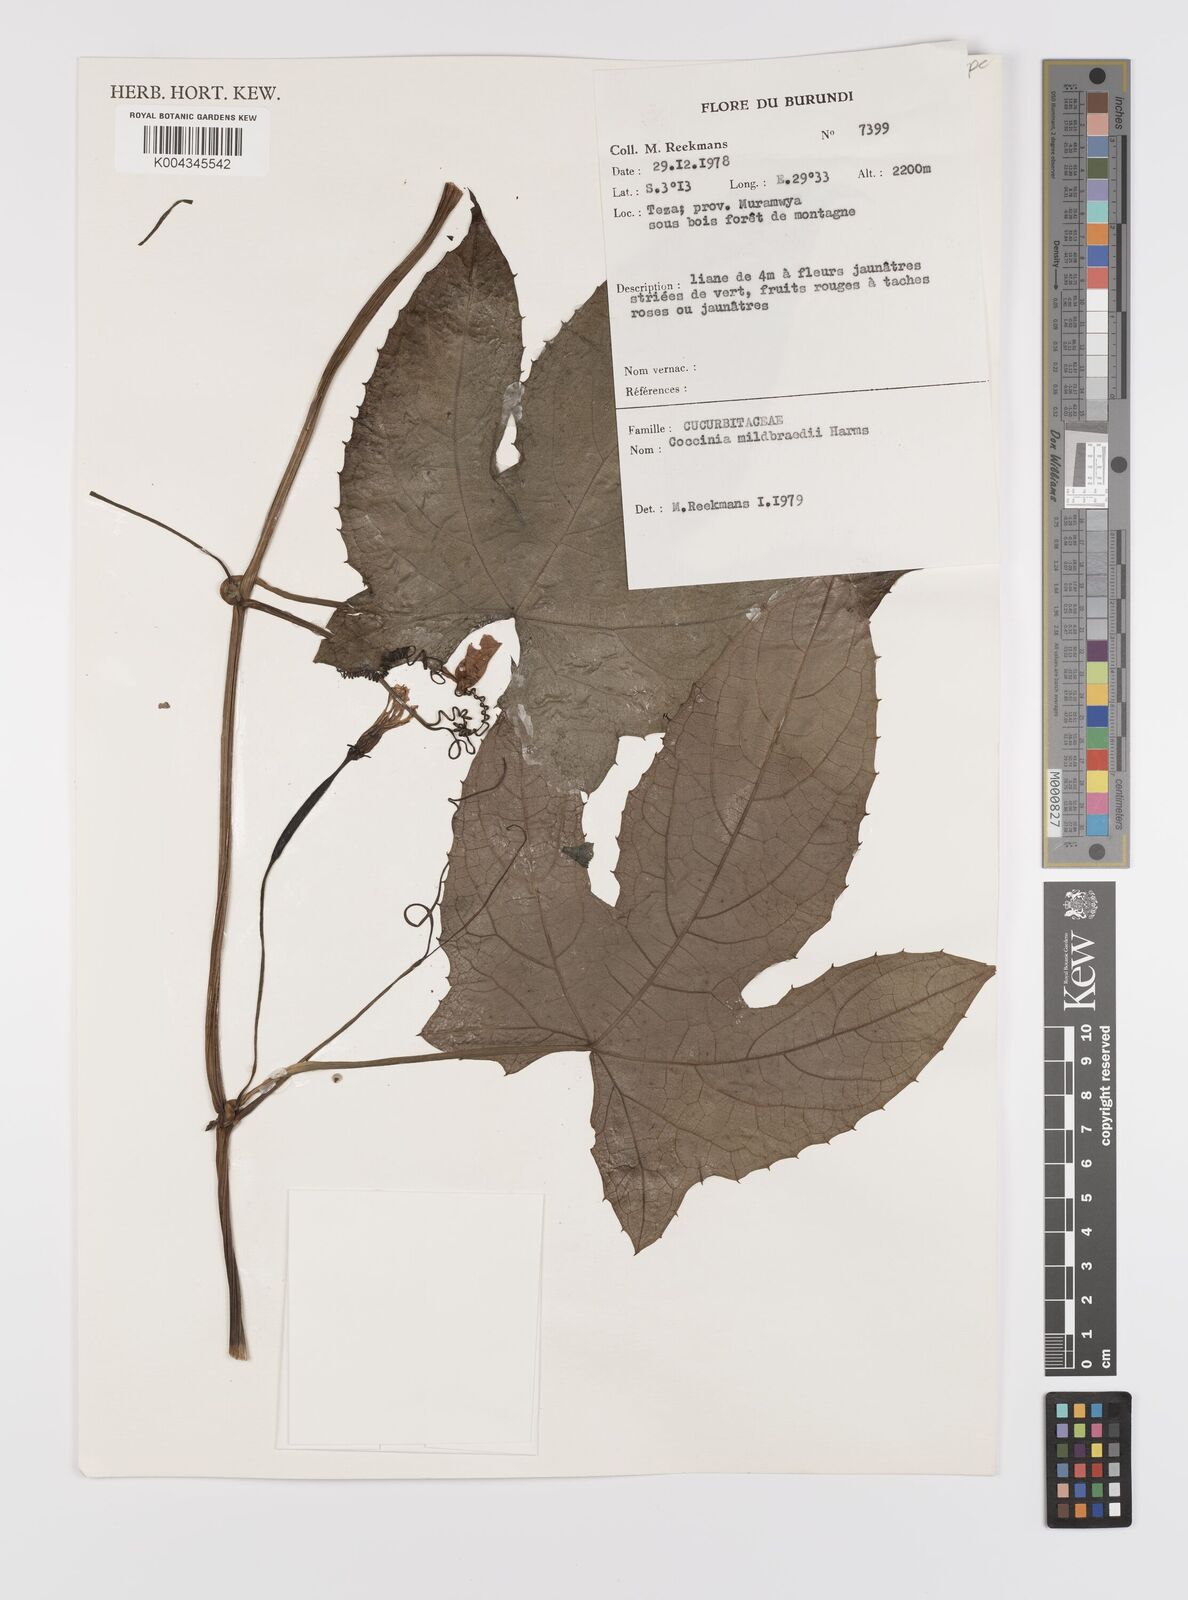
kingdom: Plantae
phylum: Tracheophyta
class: Magnoliopsida
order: Cucurbitales
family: Cucurbitaceae
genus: Coccinia
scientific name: Coccinia mildbraedii
